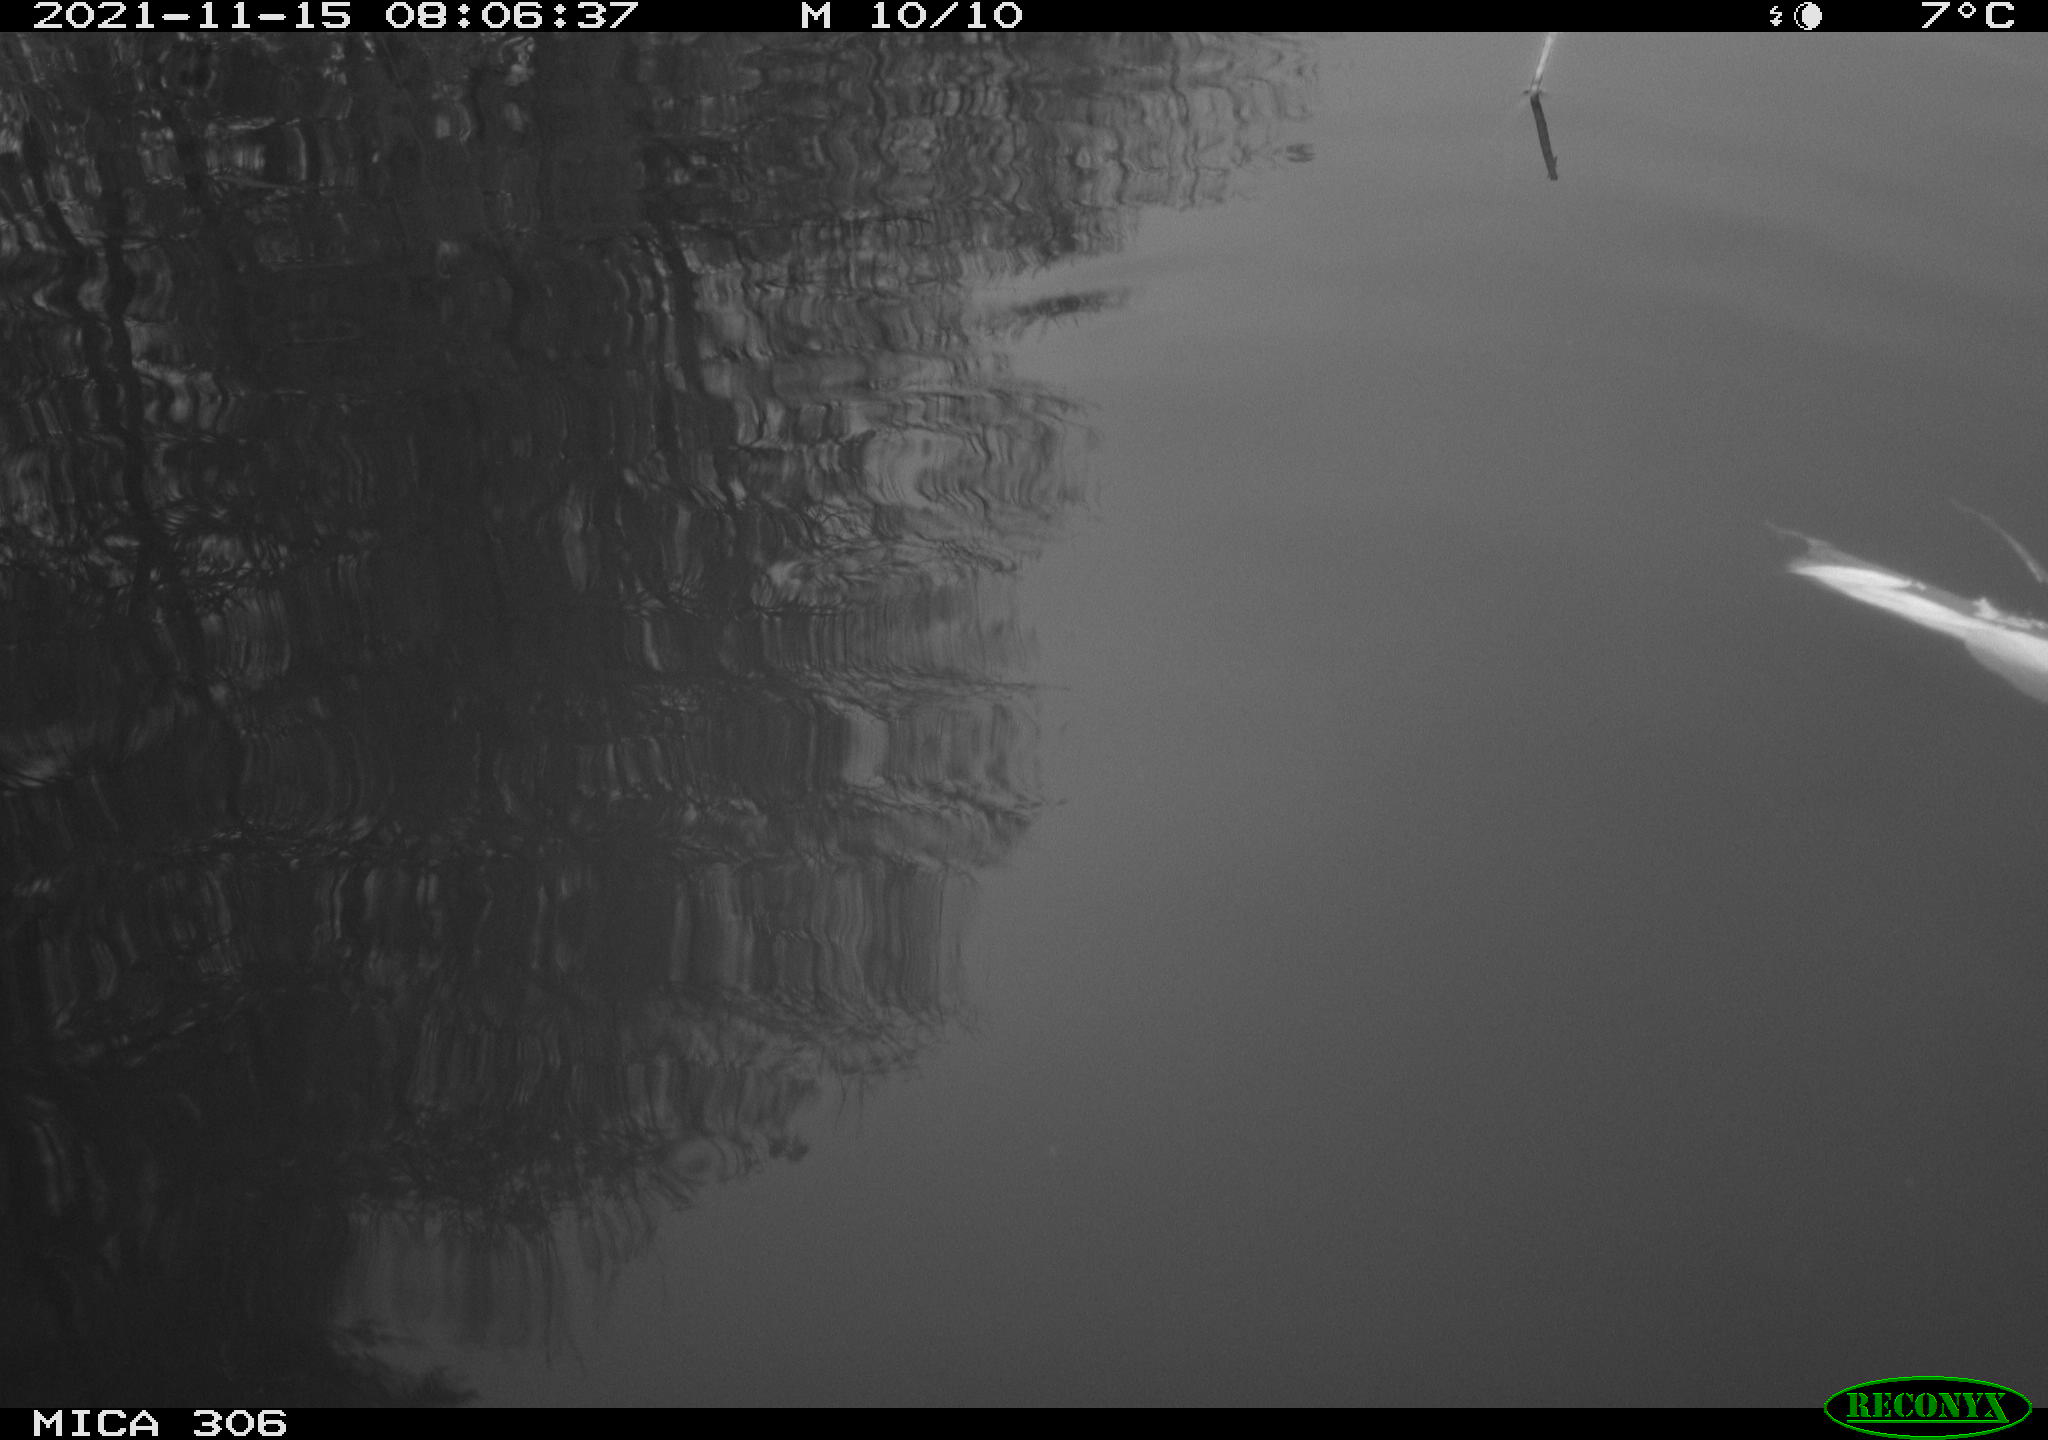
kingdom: Animalia
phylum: Chordata
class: Aves
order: Gruiformes
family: Rallidae
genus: Fulica
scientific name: Fulica atra
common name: Eurasian coot
